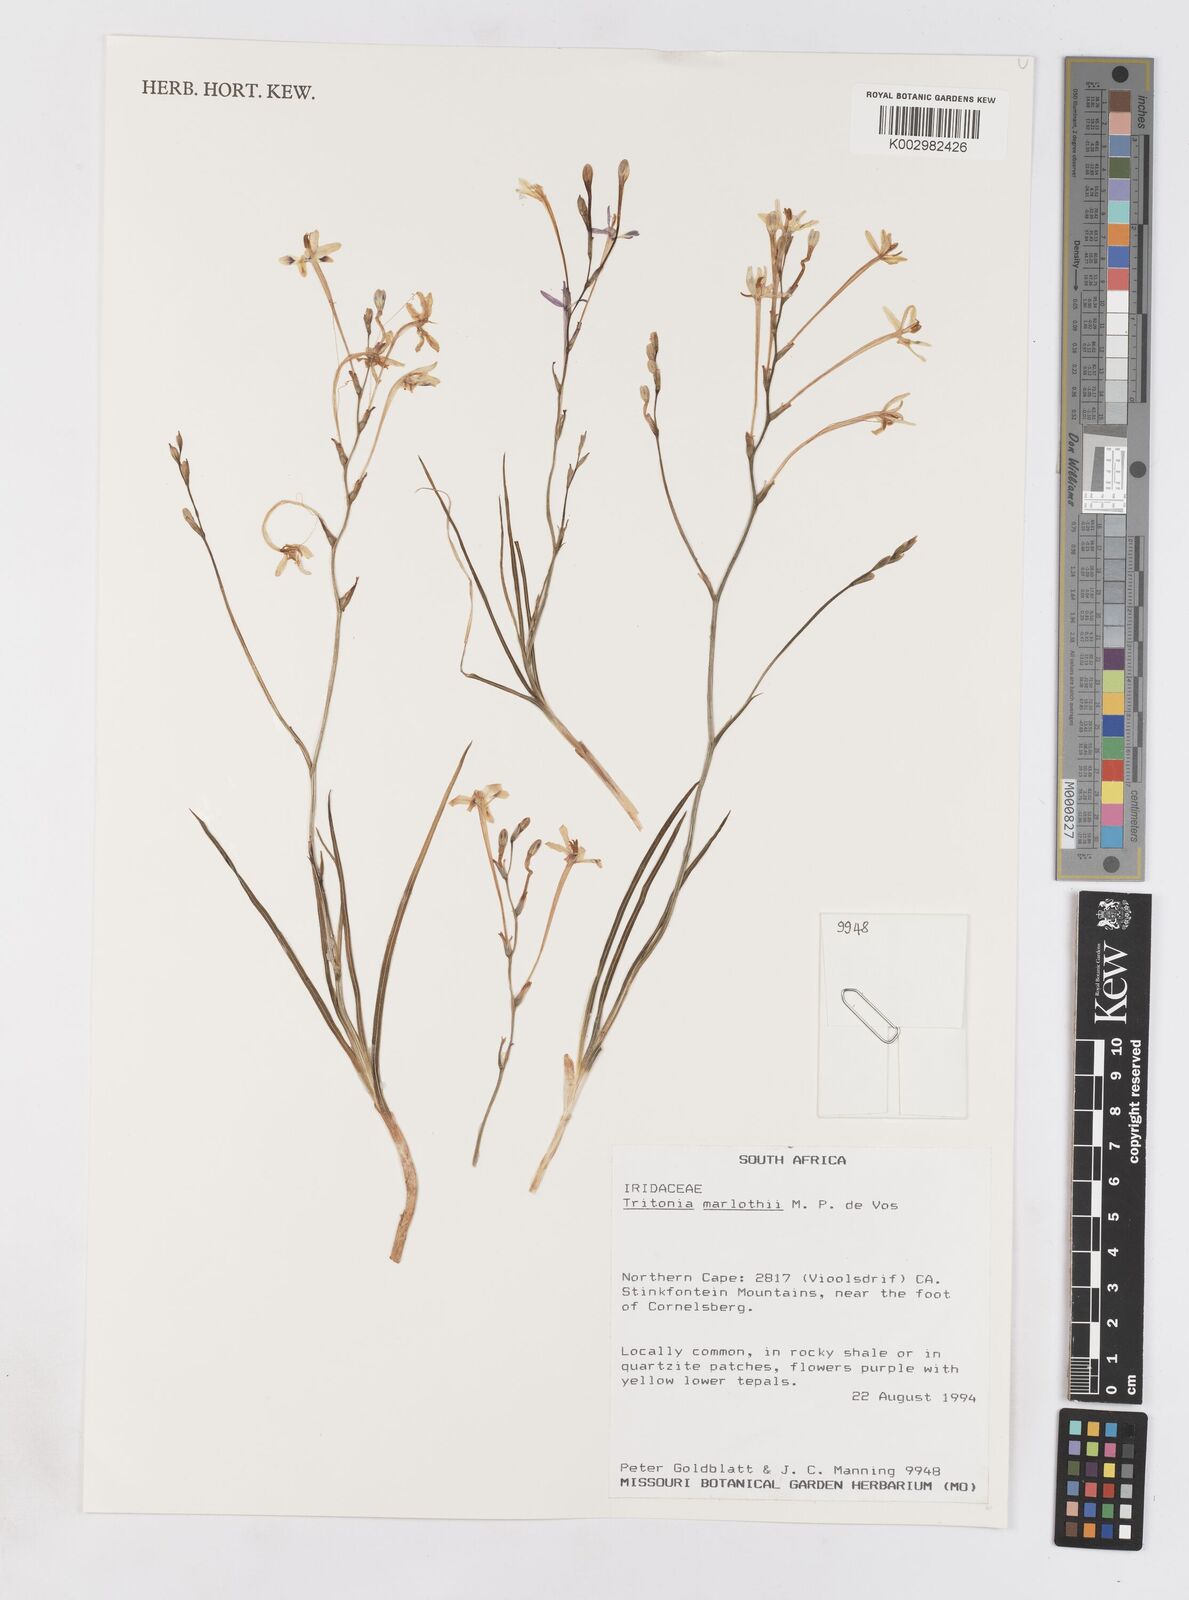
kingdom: Plantae
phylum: Tracheophyta
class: Liliopsida
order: Asparagales
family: Iridaceae
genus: Tritonia
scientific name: Tritonia marlothii
